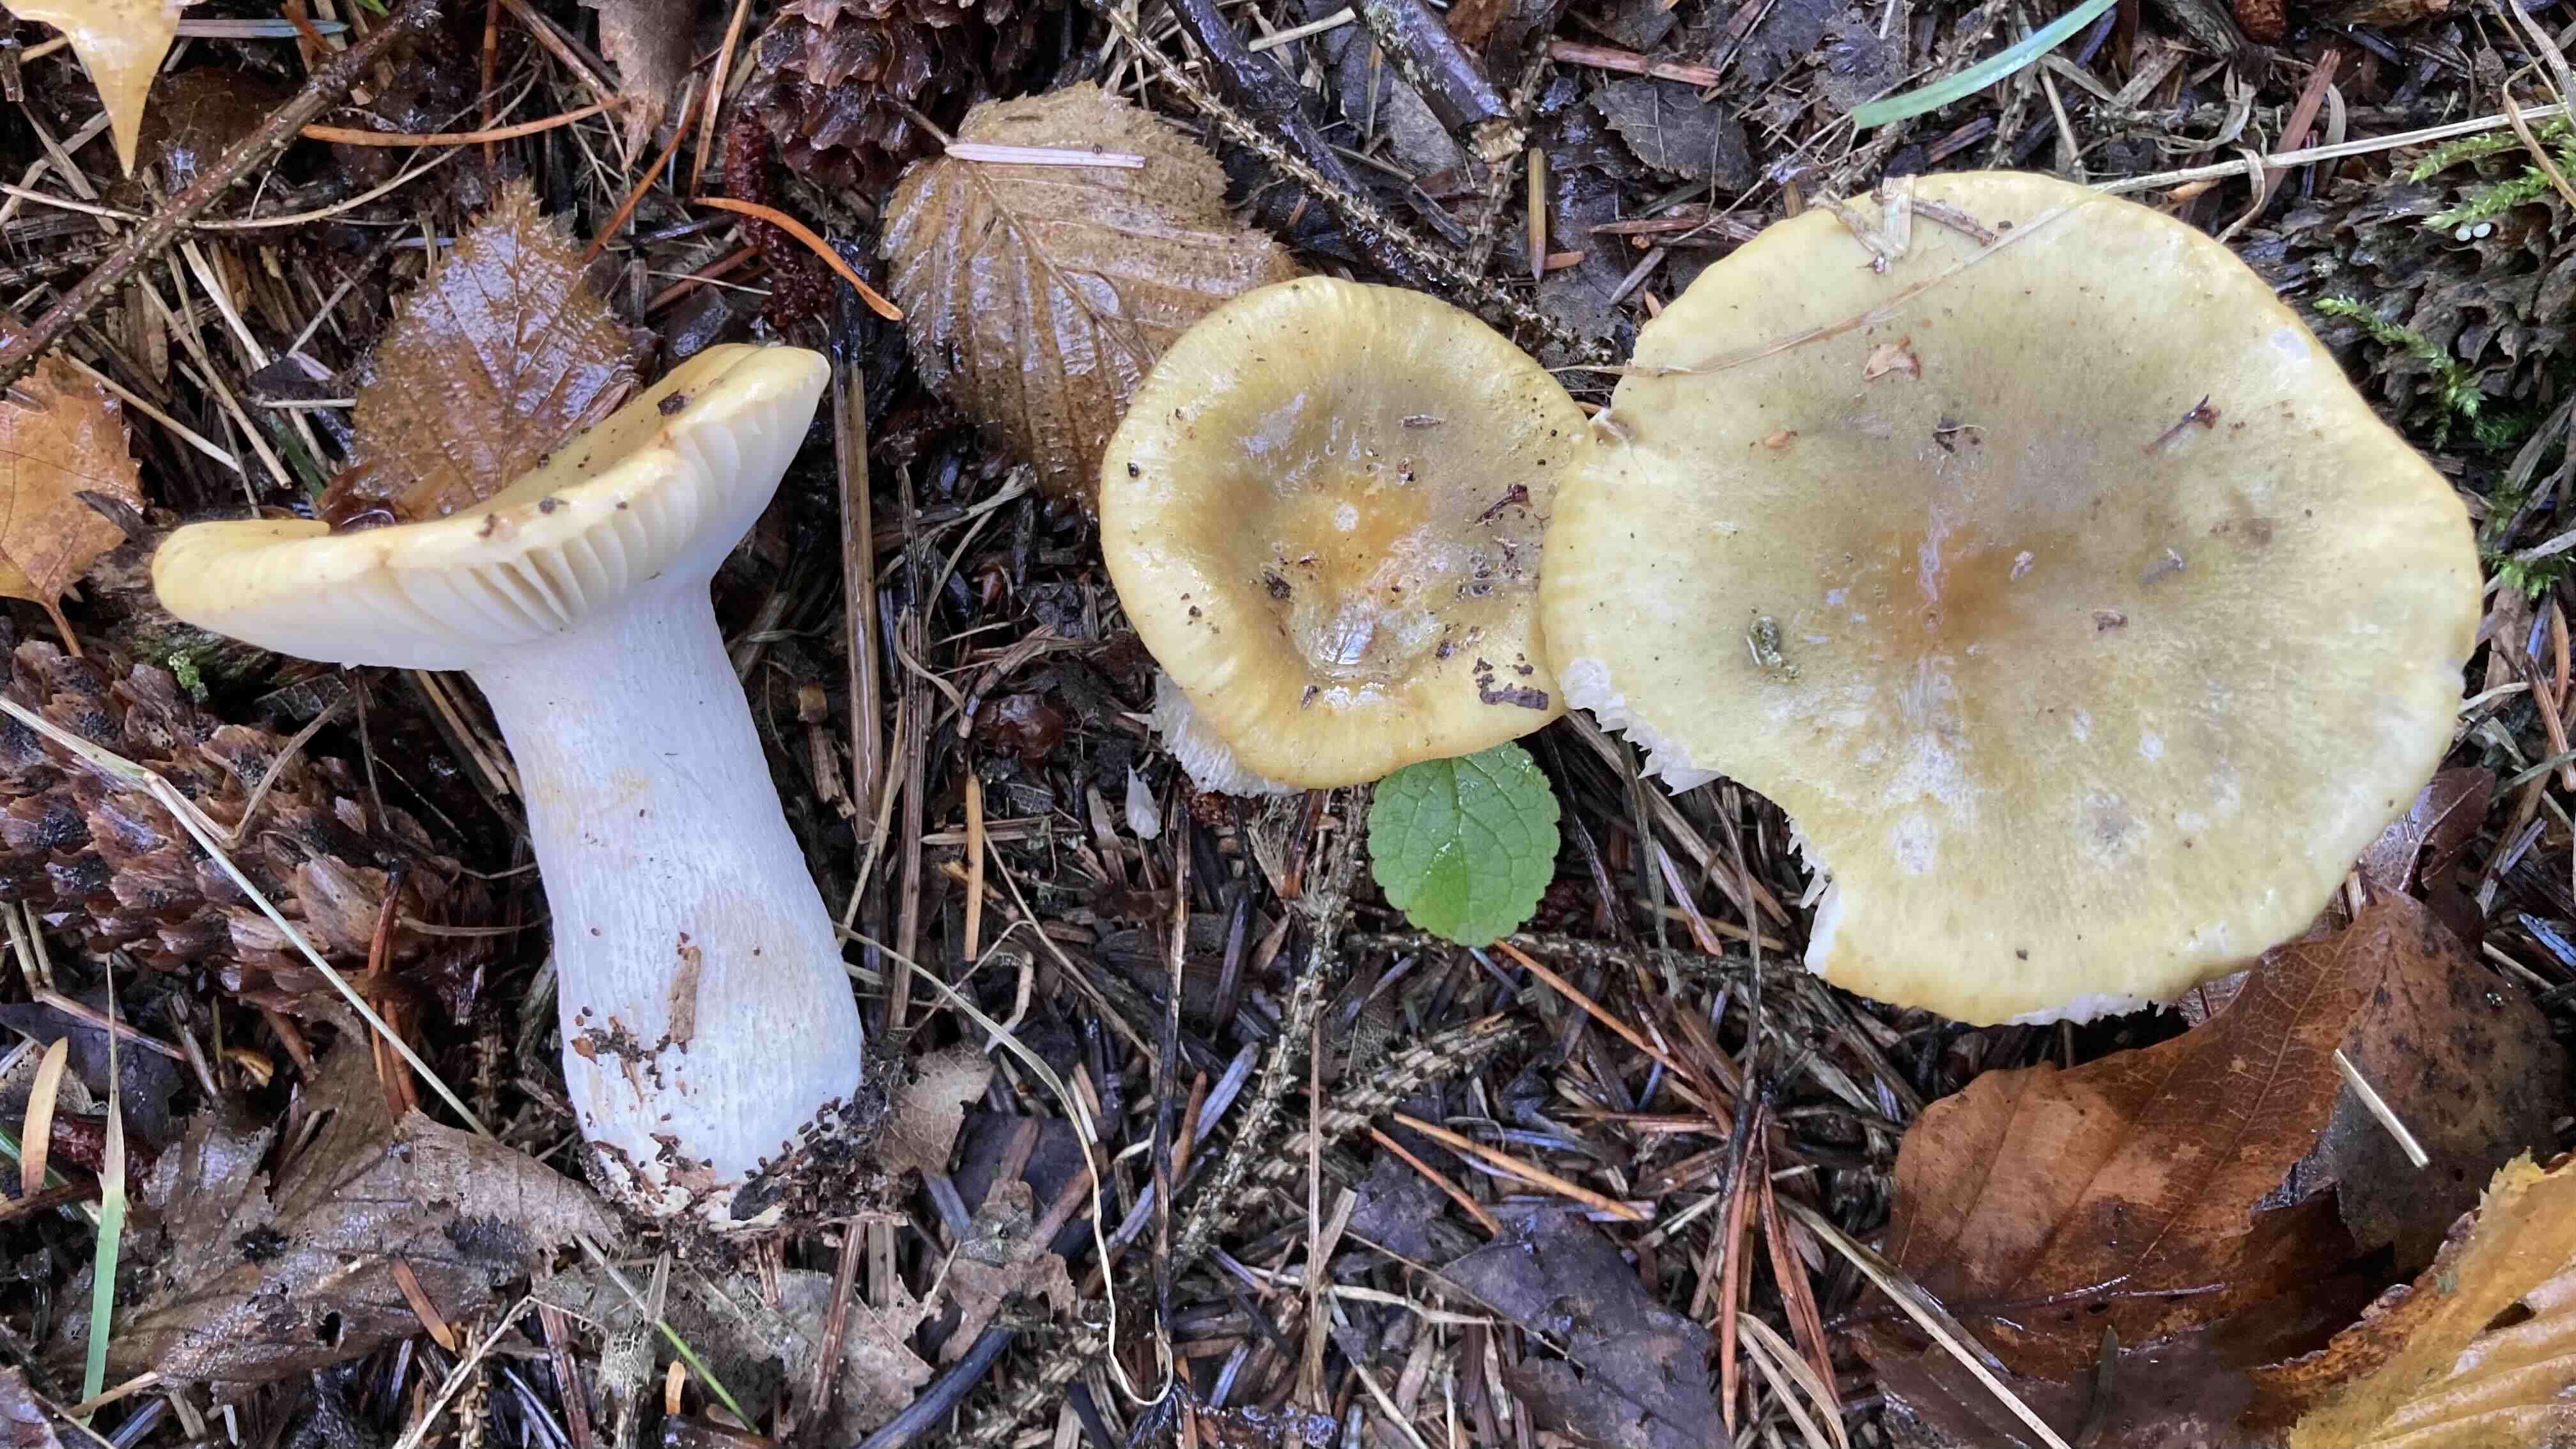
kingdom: Fungi
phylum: Basidiomycota
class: Agaricomycetes
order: Russulales
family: Russulaceae
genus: Russula
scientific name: Russula ochroleuca
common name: okkergul skørhat
